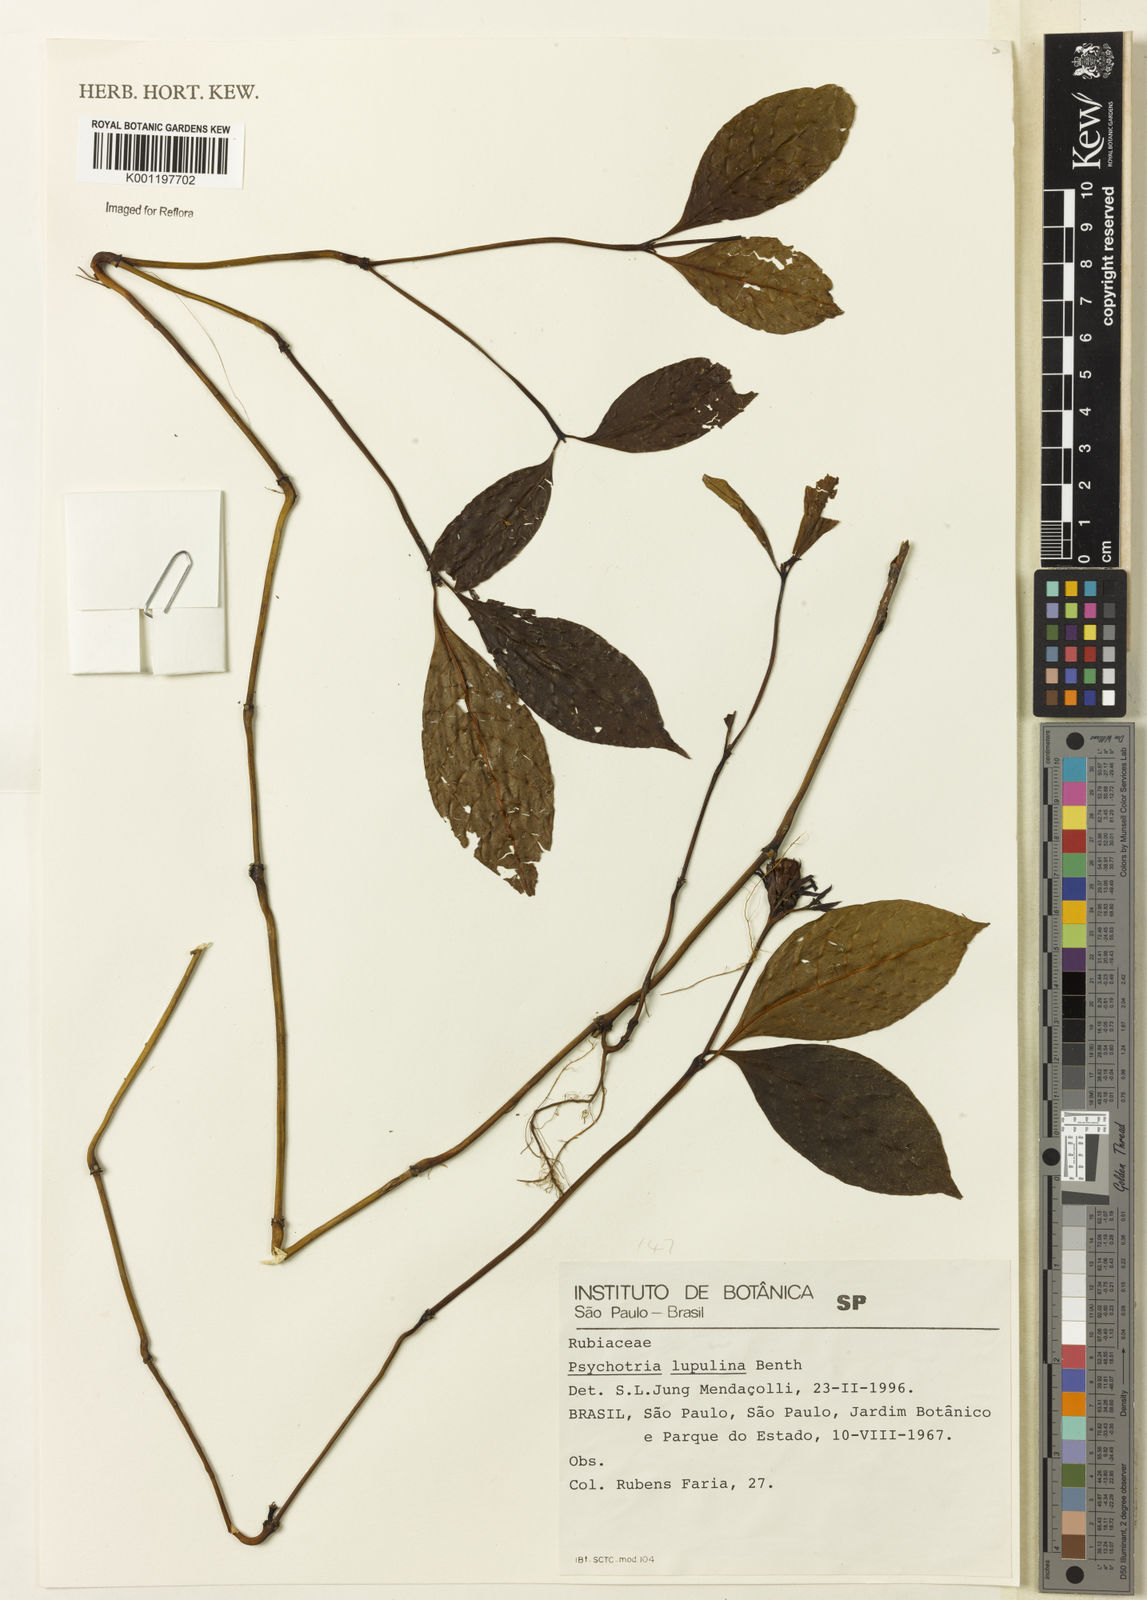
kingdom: Plantae
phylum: Tracheophyta
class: Magnoliopsida
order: Gentianales
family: Rubiaceae
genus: Palicourea
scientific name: Palicourea justiciifolia
